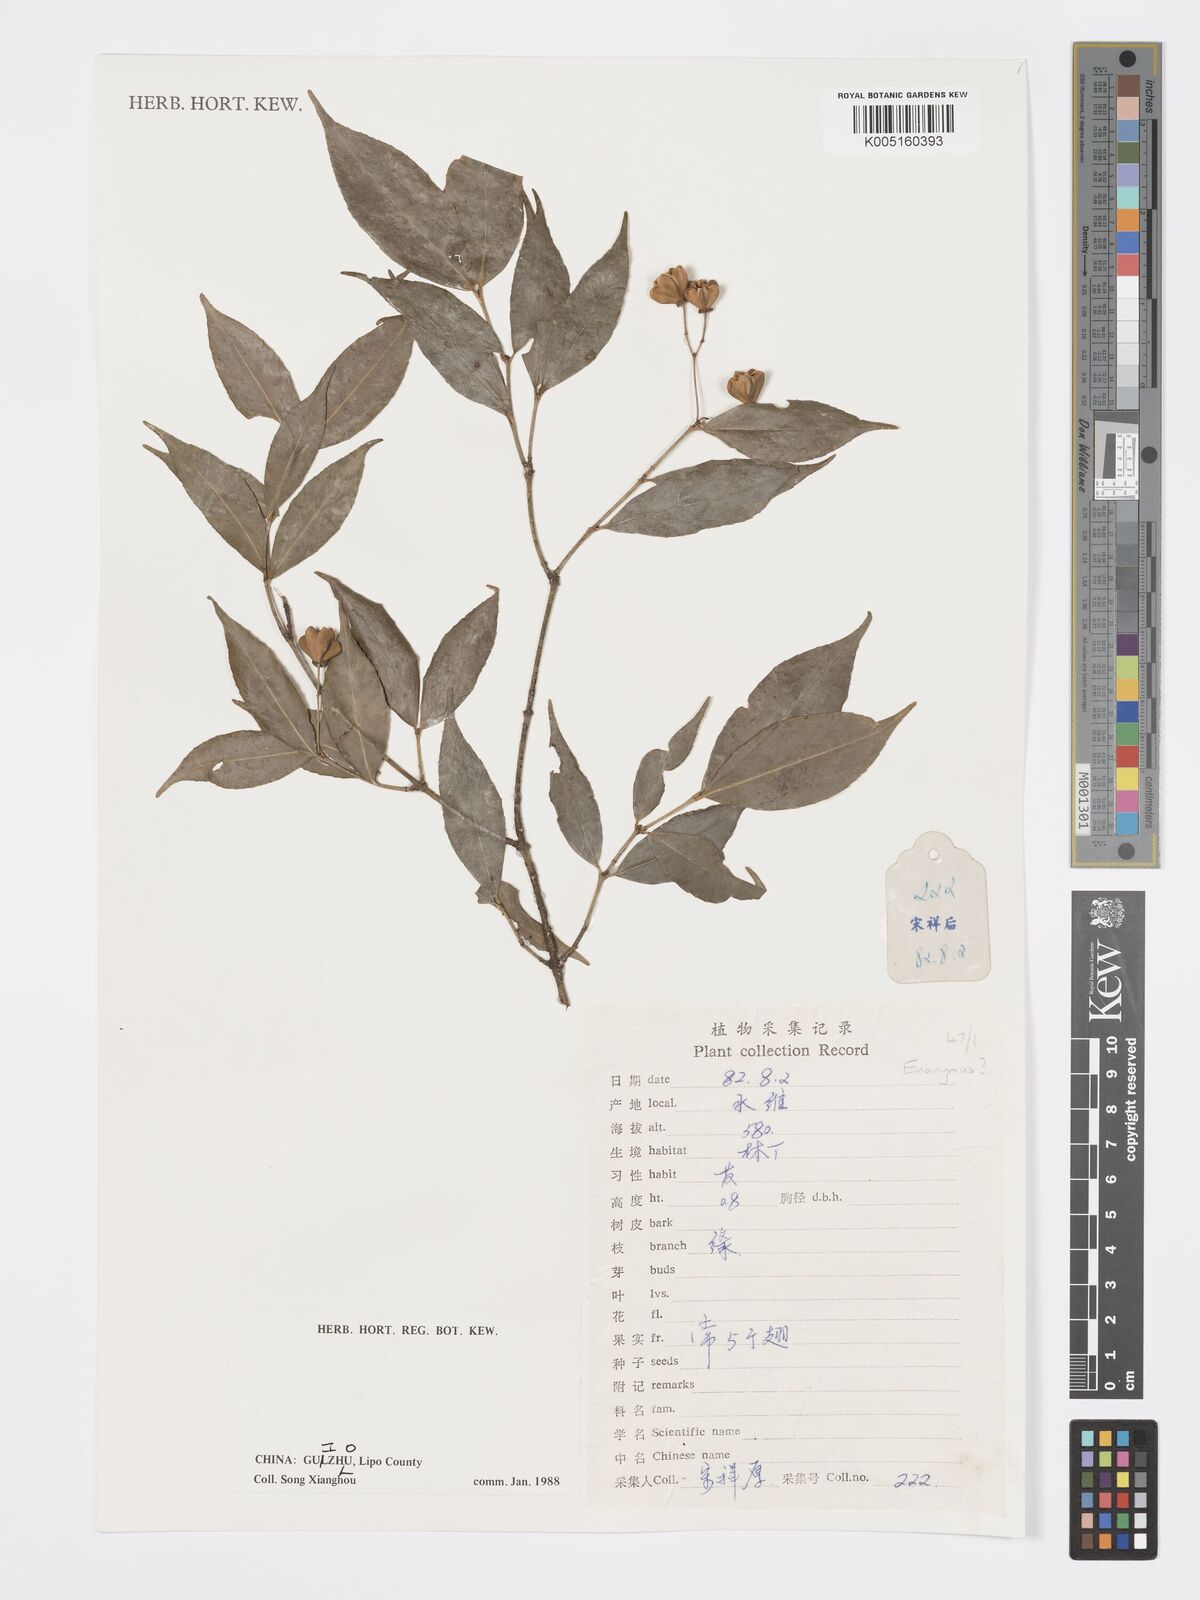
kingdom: Plantae
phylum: Tracheophyta
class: Magnoliopsida
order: Celastrales
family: Celastraceae
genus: Euonymus
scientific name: Euonymus
